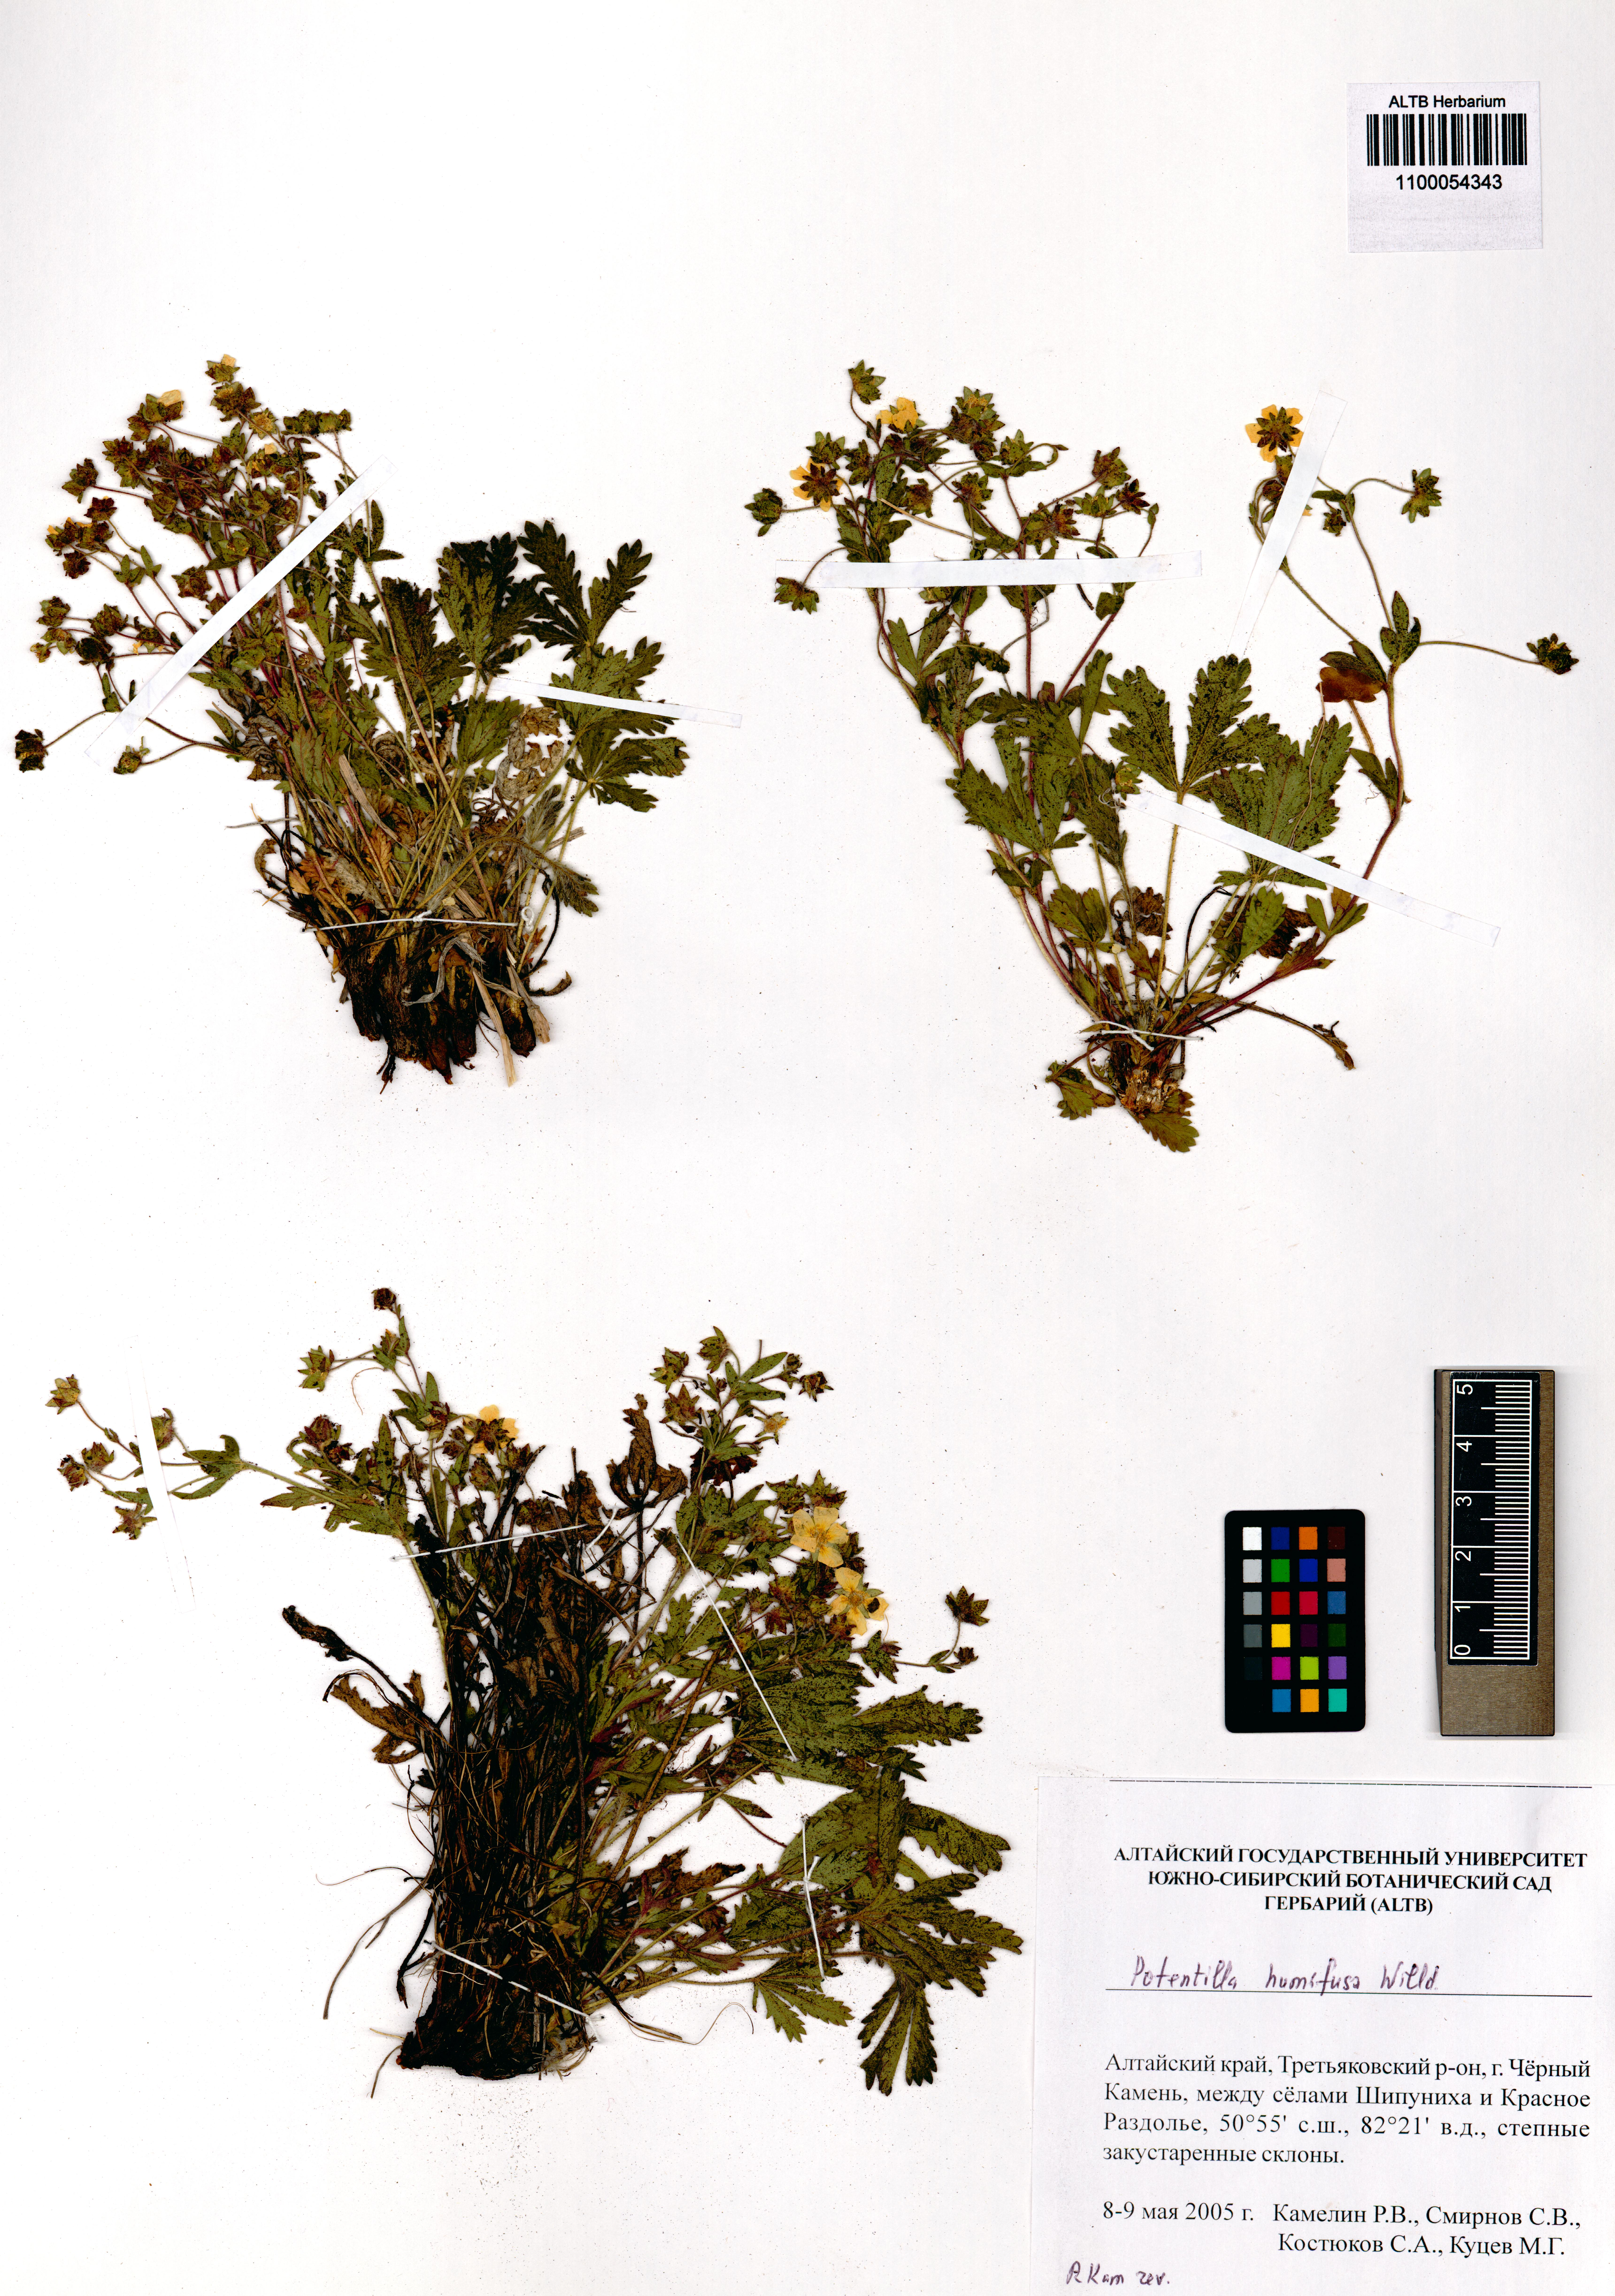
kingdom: Plantae
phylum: Tracheophyta
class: Magnoliopsida
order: Rosales
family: Rosaceae
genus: Potentilla
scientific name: Potentilla humifusa
